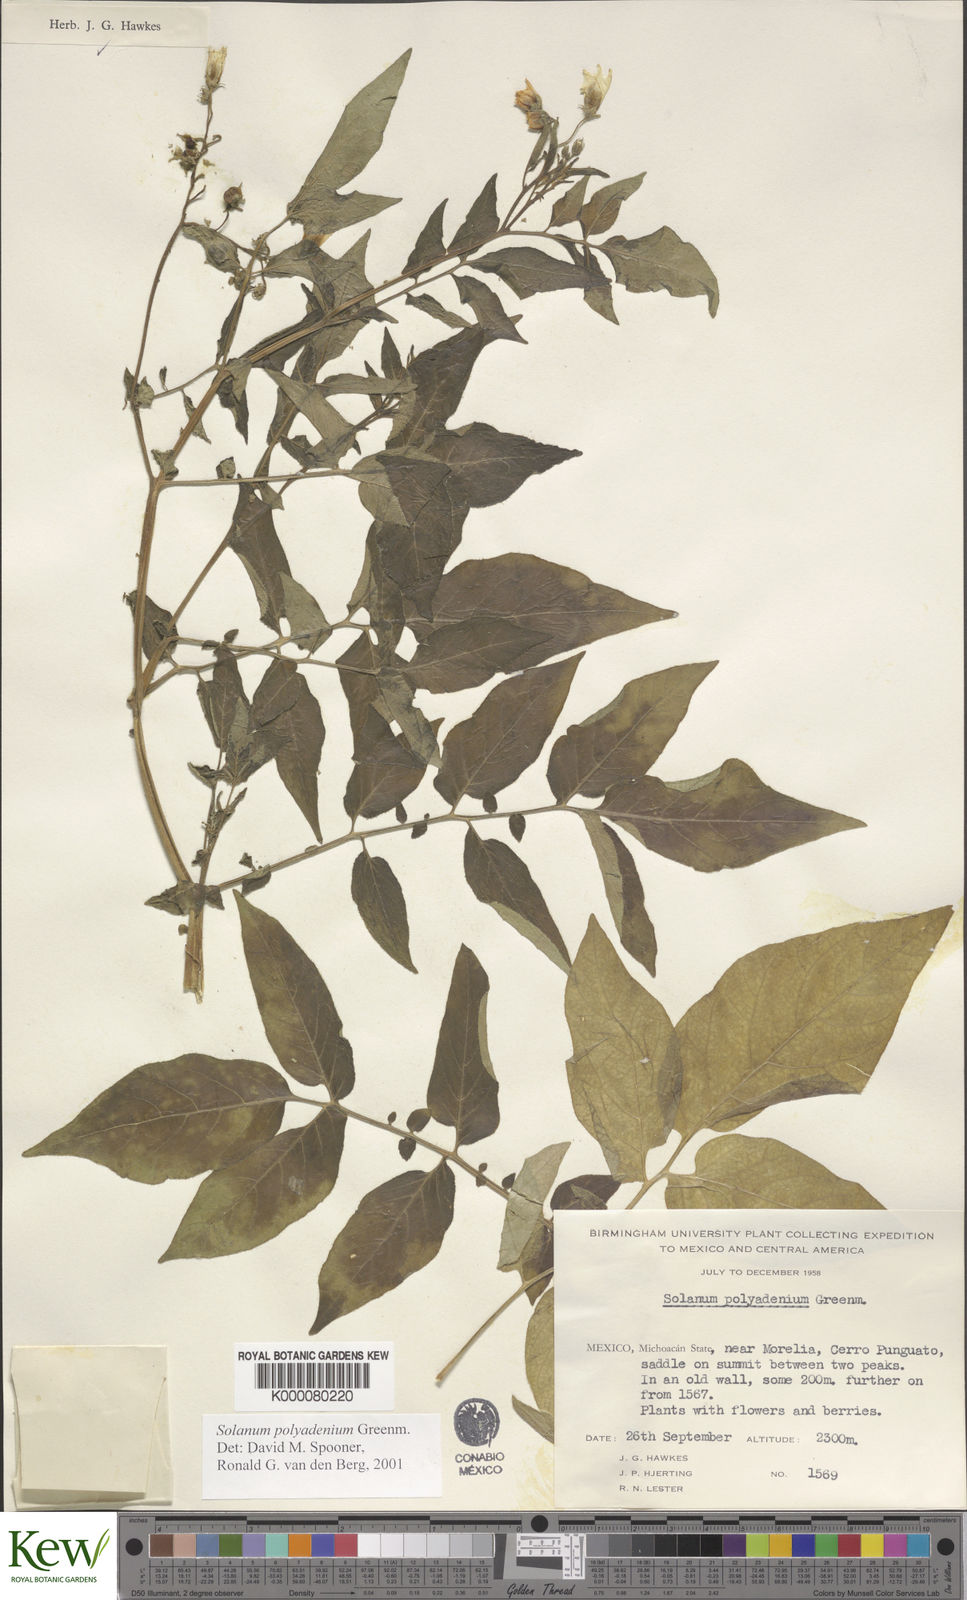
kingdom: Plantae
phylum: Tracheophyta
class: Magnoliopsida
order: Solanales
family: Solanaceae
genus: Solanum
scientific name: Solanum polyadenium
